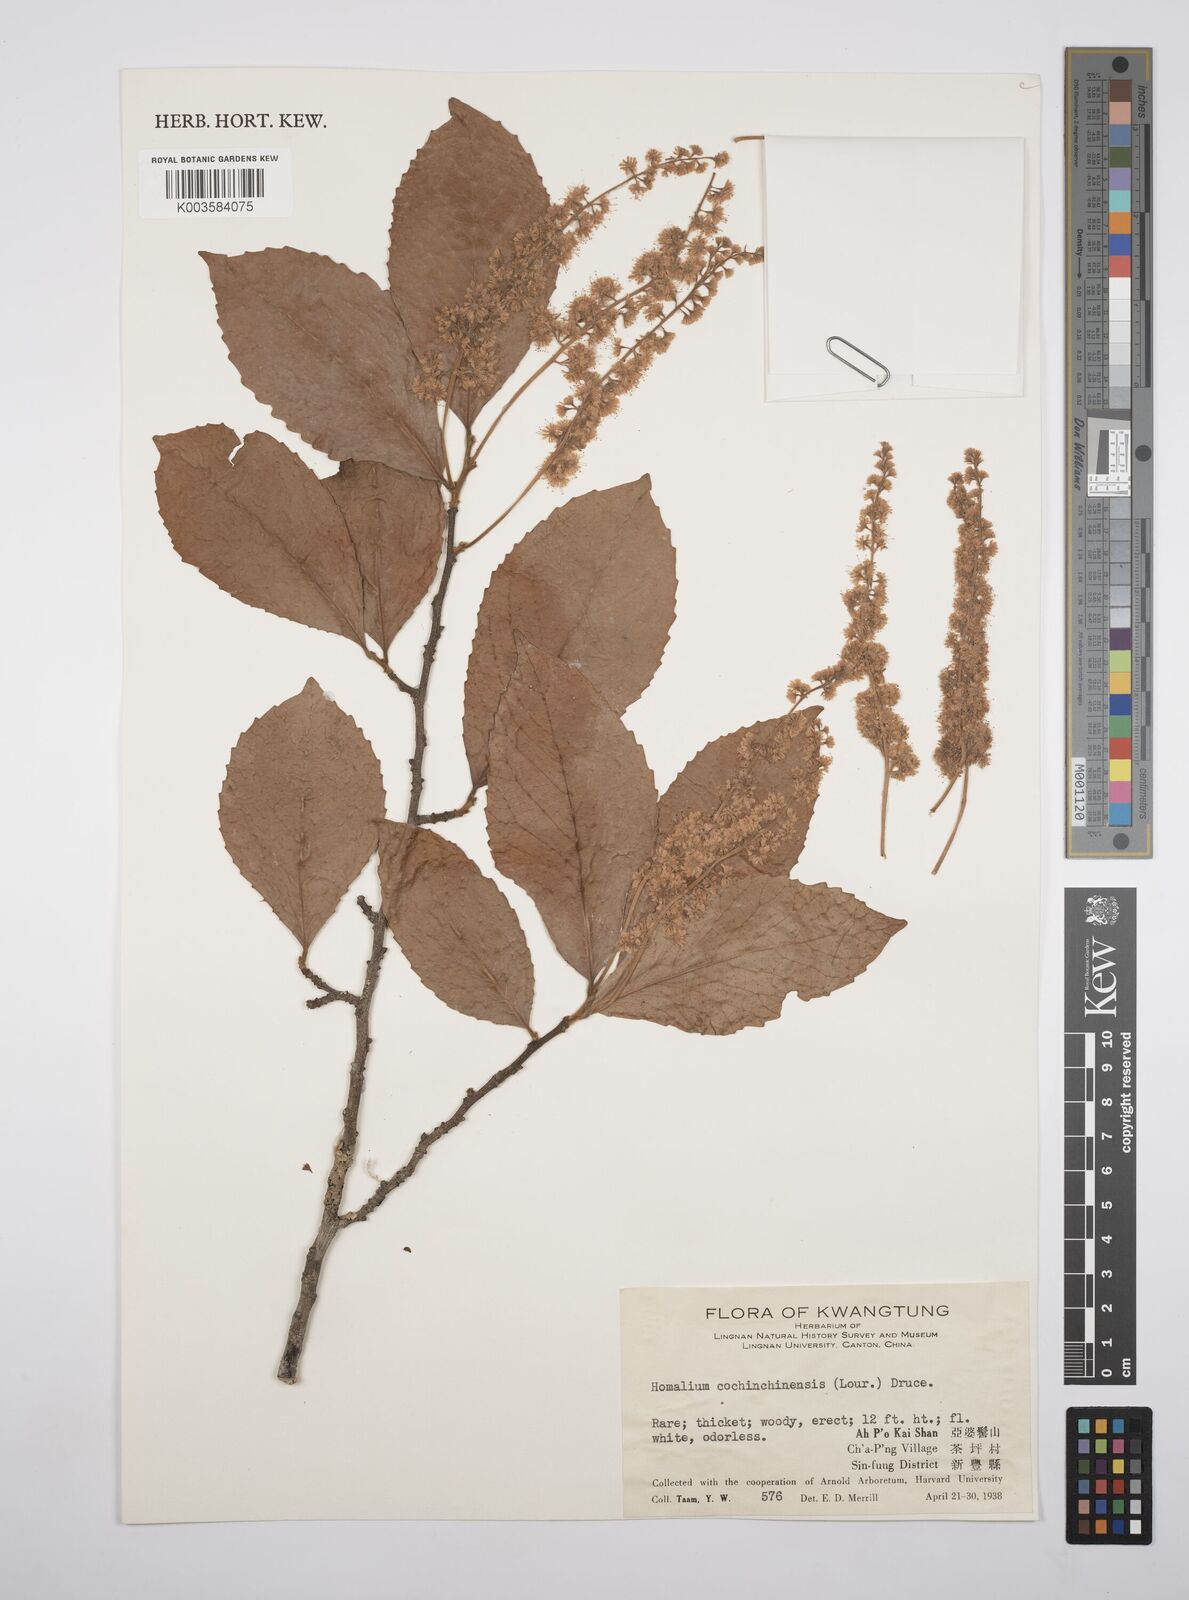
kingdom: Plantae
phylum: Tracheophyta
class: Magnoliopsida
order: Malpighiales
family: Salicaceae
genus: Homalium
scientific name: Homalium cochinchinensis
